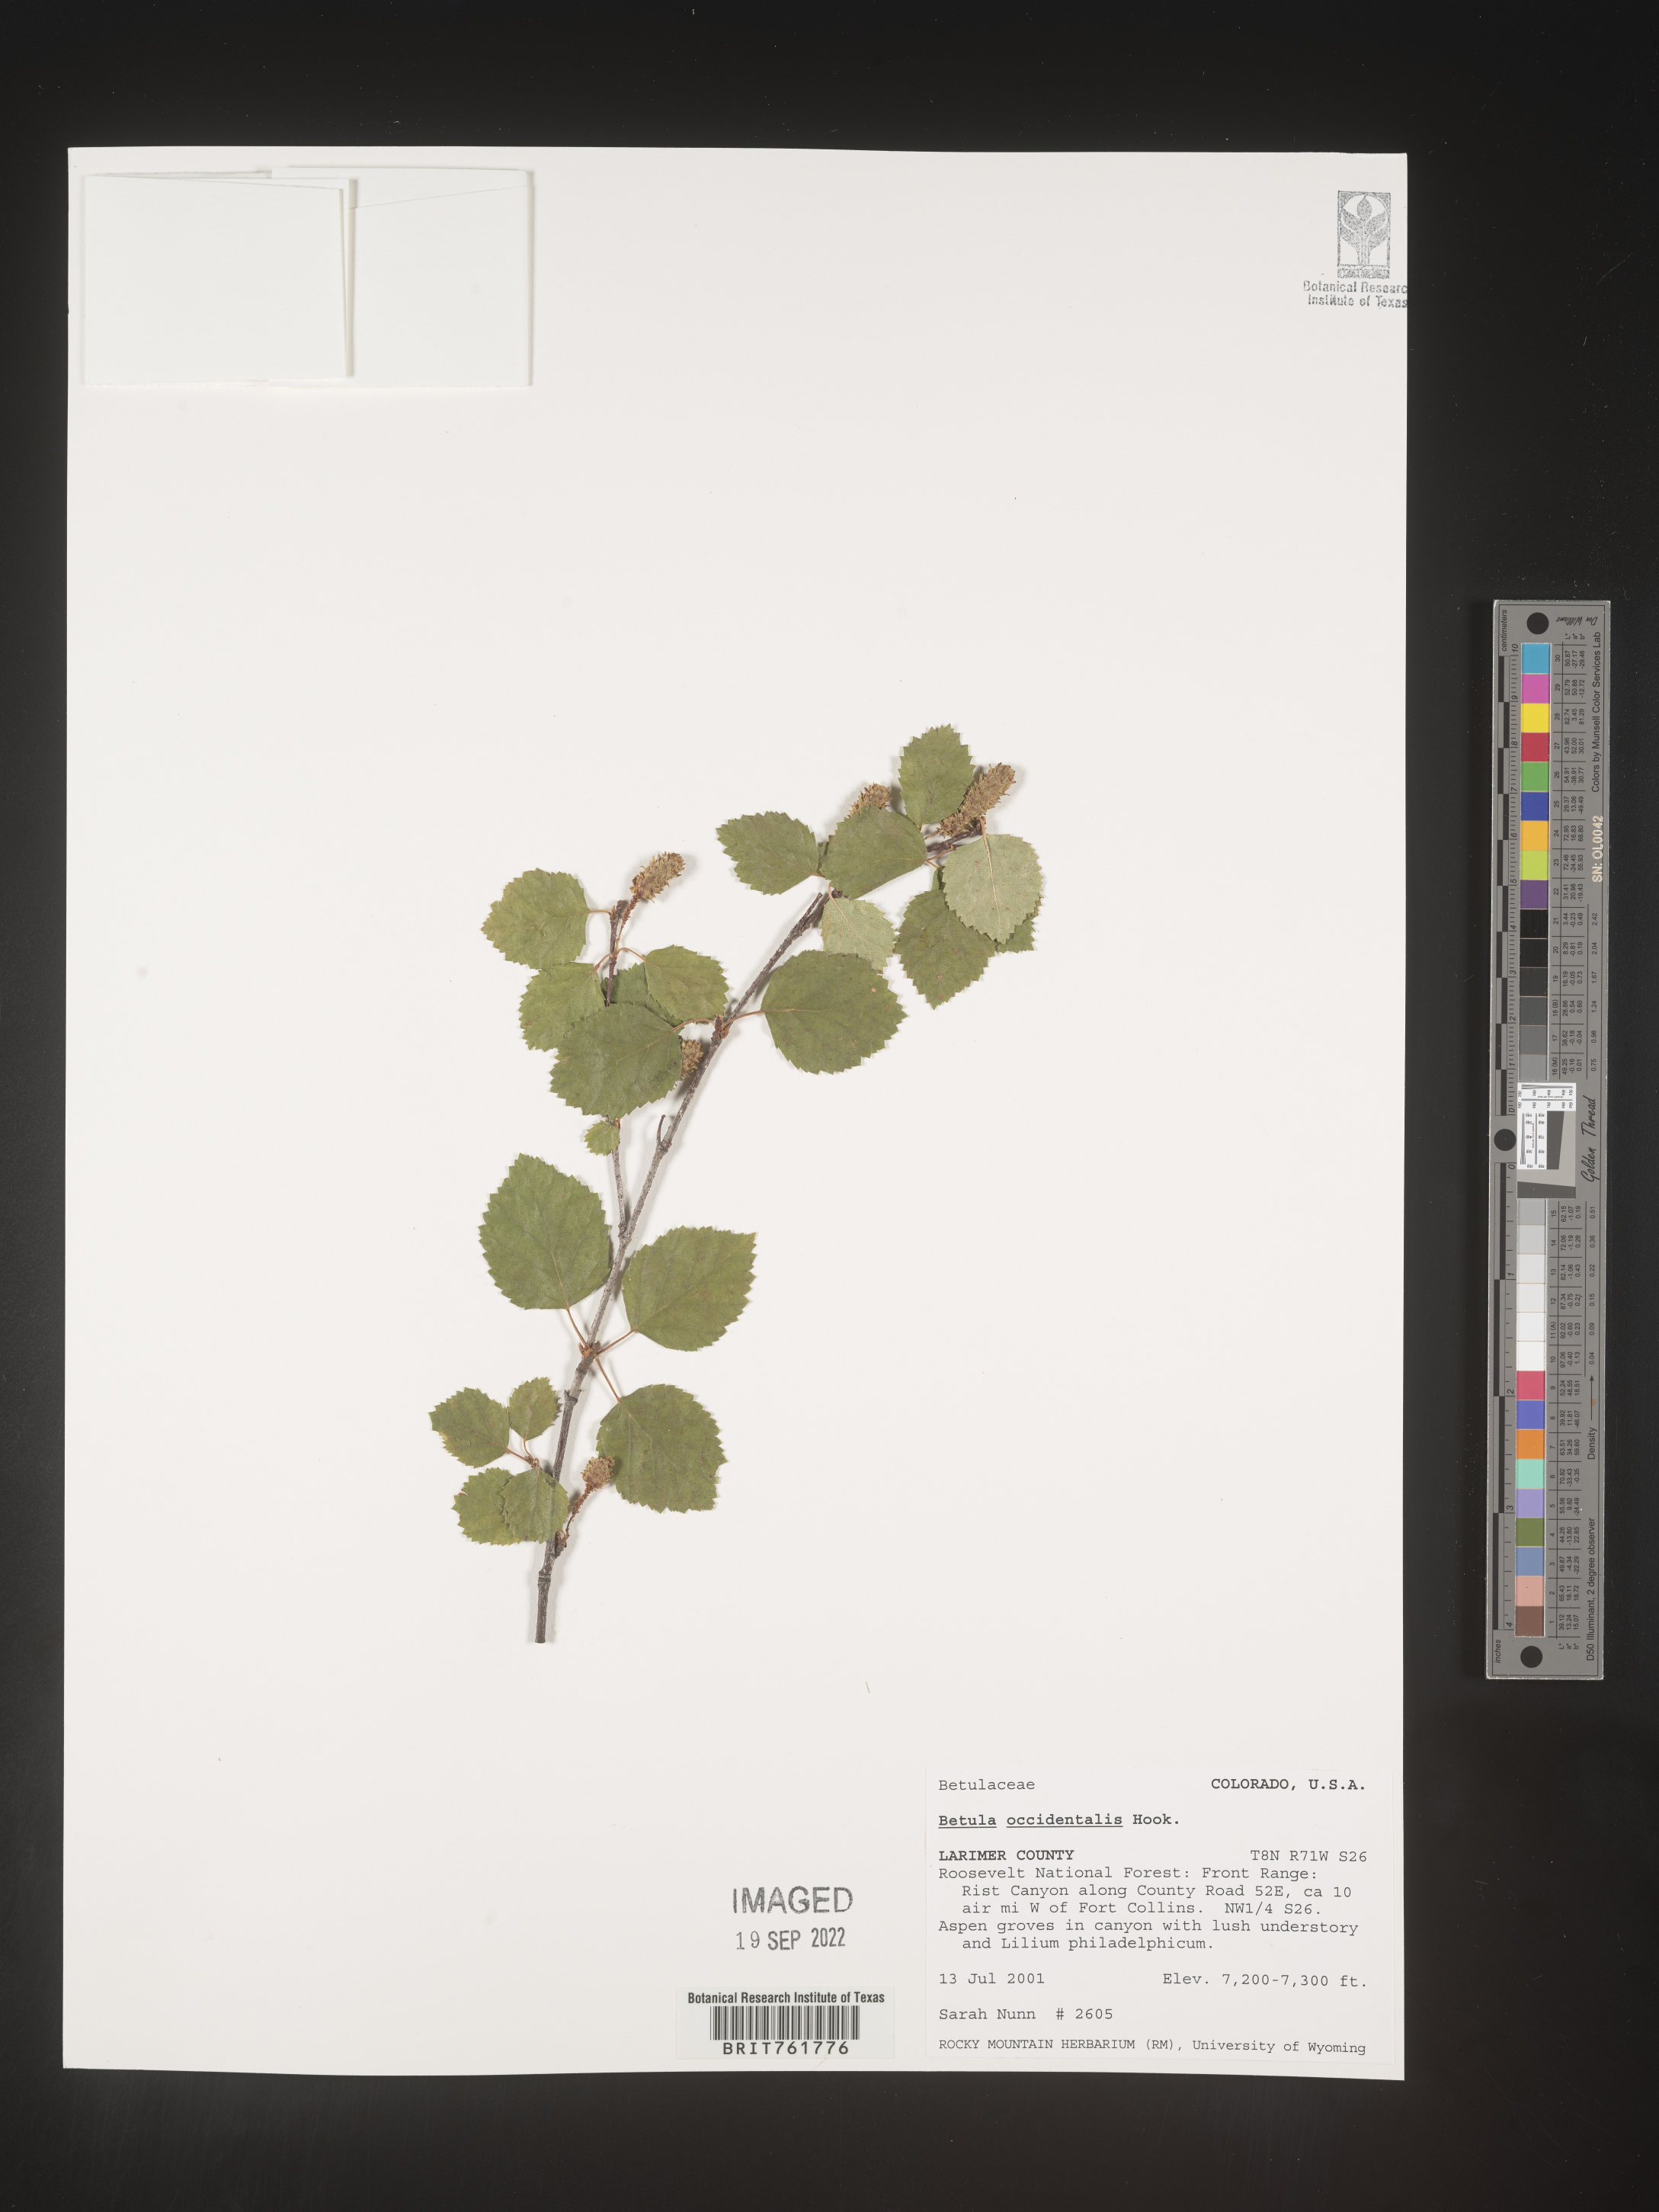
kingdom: Plantae
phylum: Tracheophyta
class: Magnoliopsida
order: Fagales
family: Betulaceae
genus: Betula
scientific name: Betula occidentalis
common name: River birch
